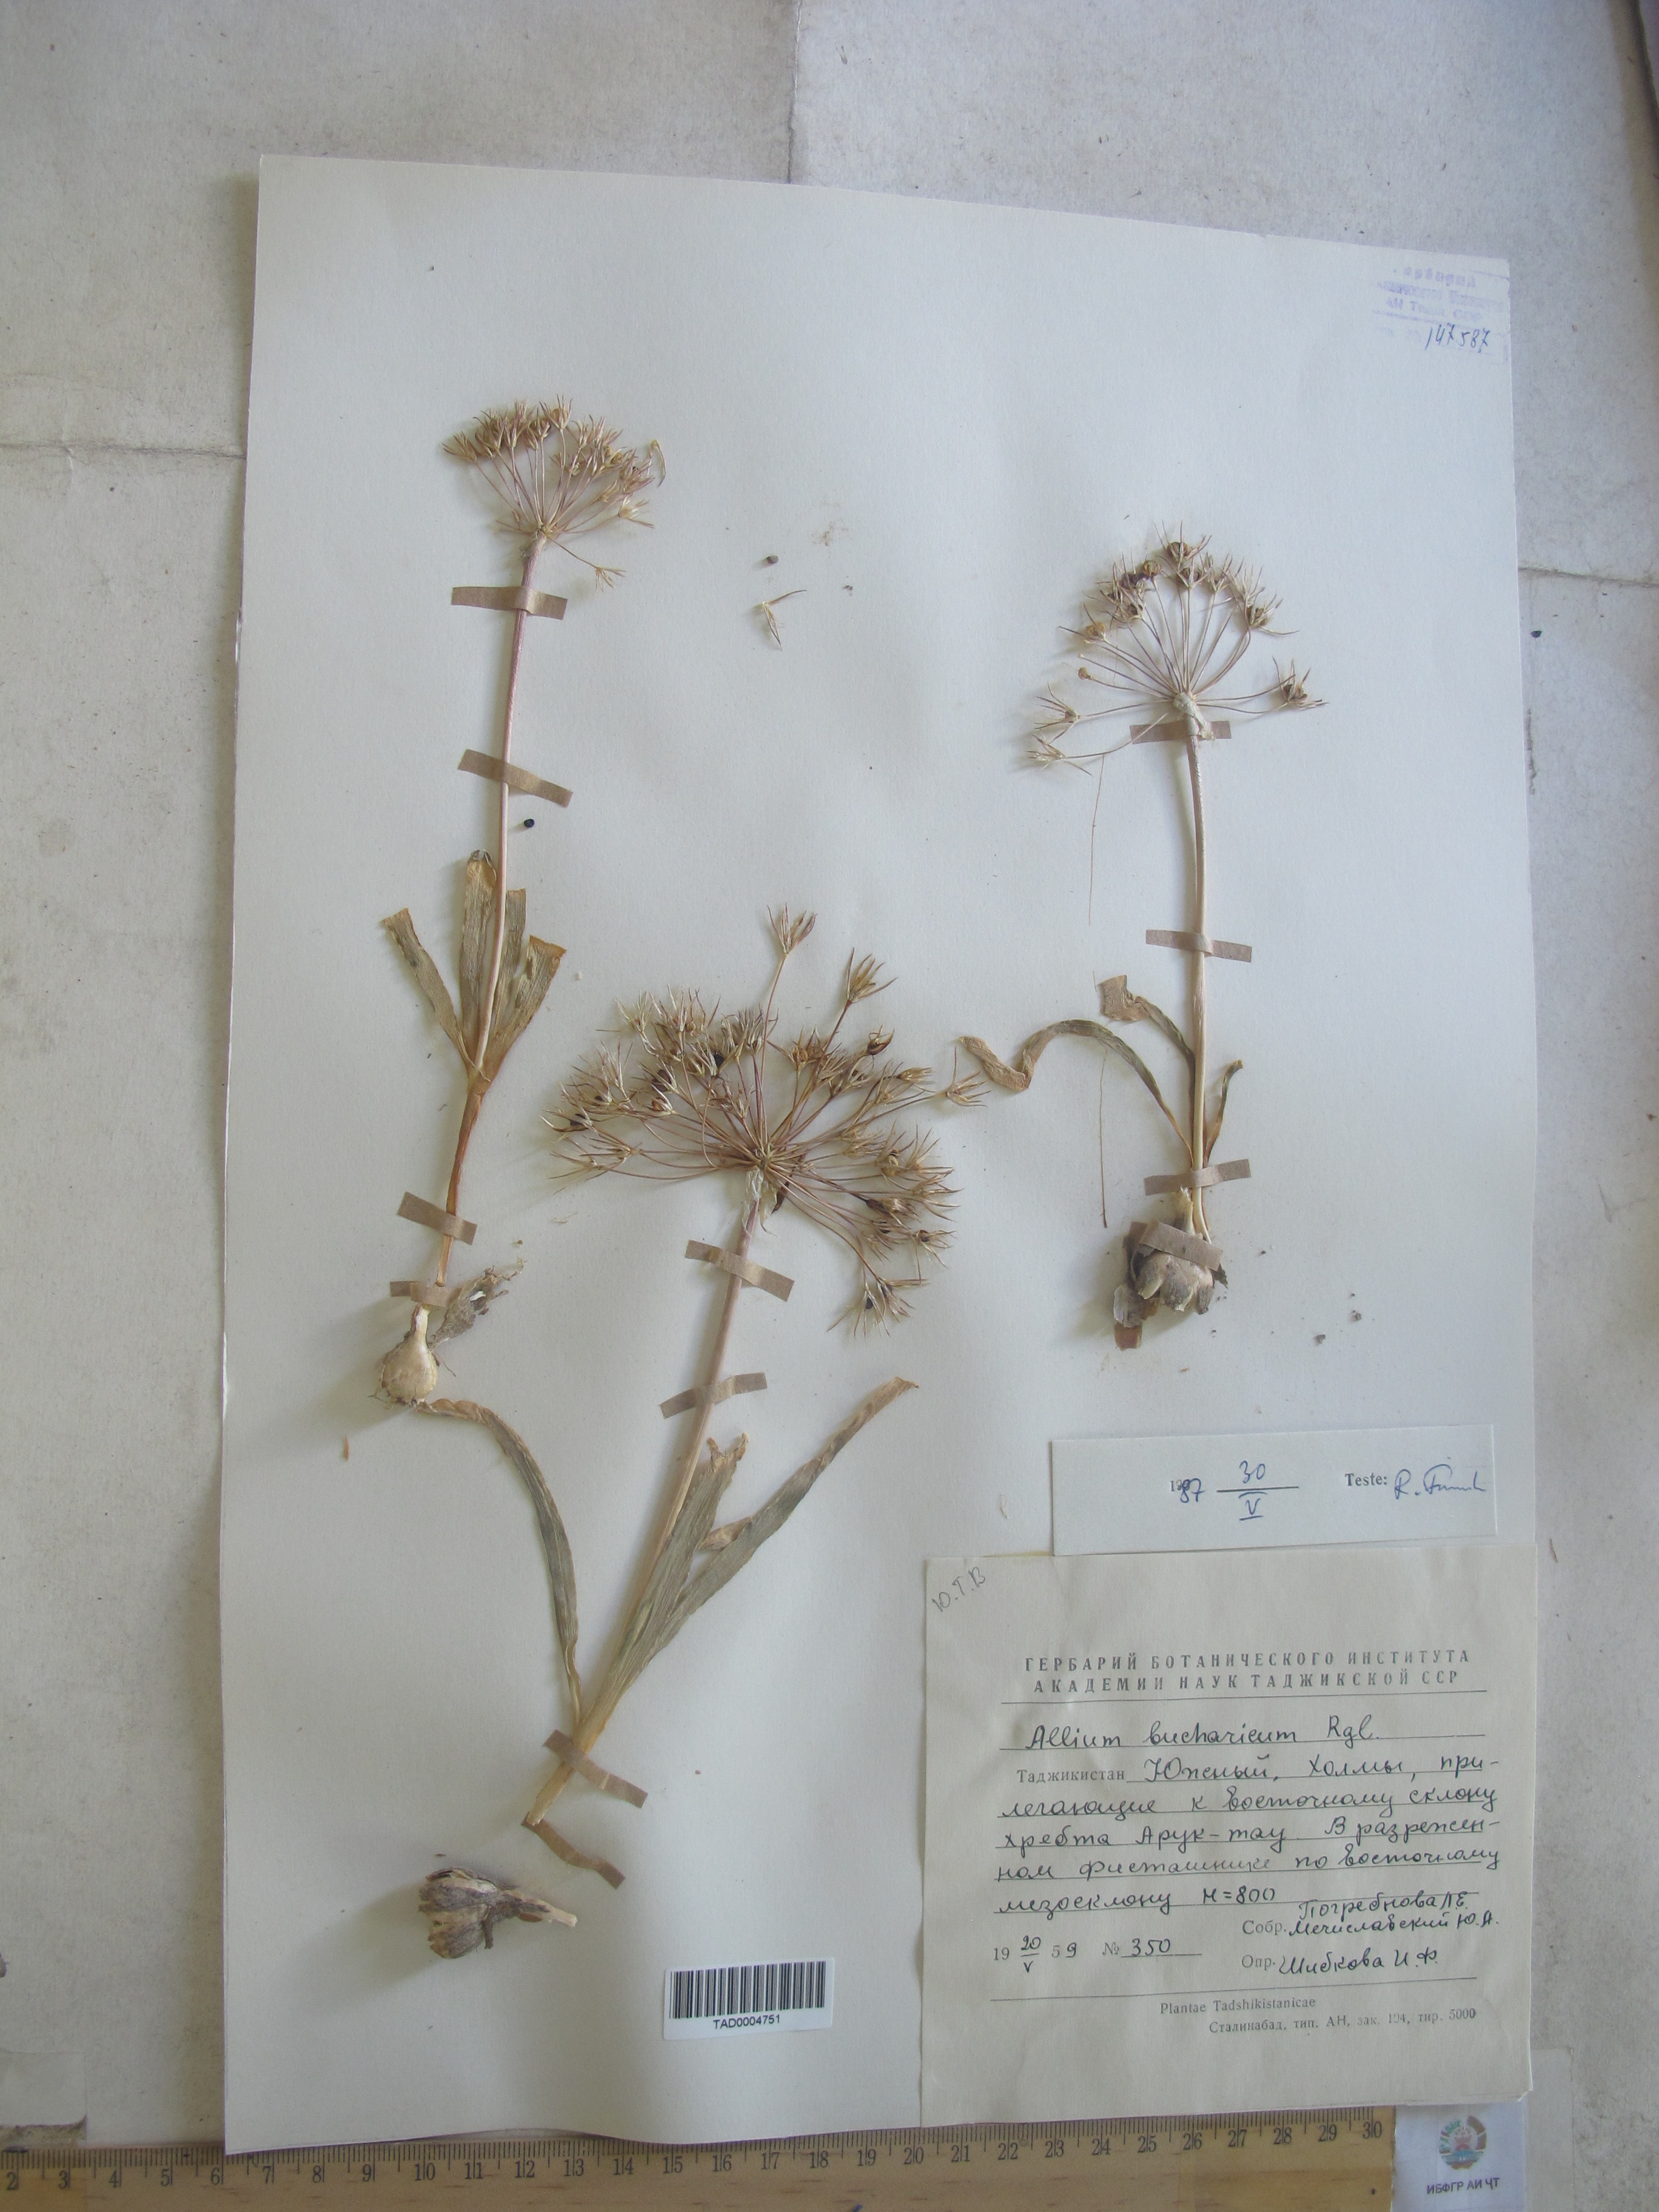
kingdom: Plantae
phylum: Tracheophyta
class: Liliopsida
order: Asparagales
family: Amaryllidaceae
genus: Allium
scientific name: Allium bucharicum
